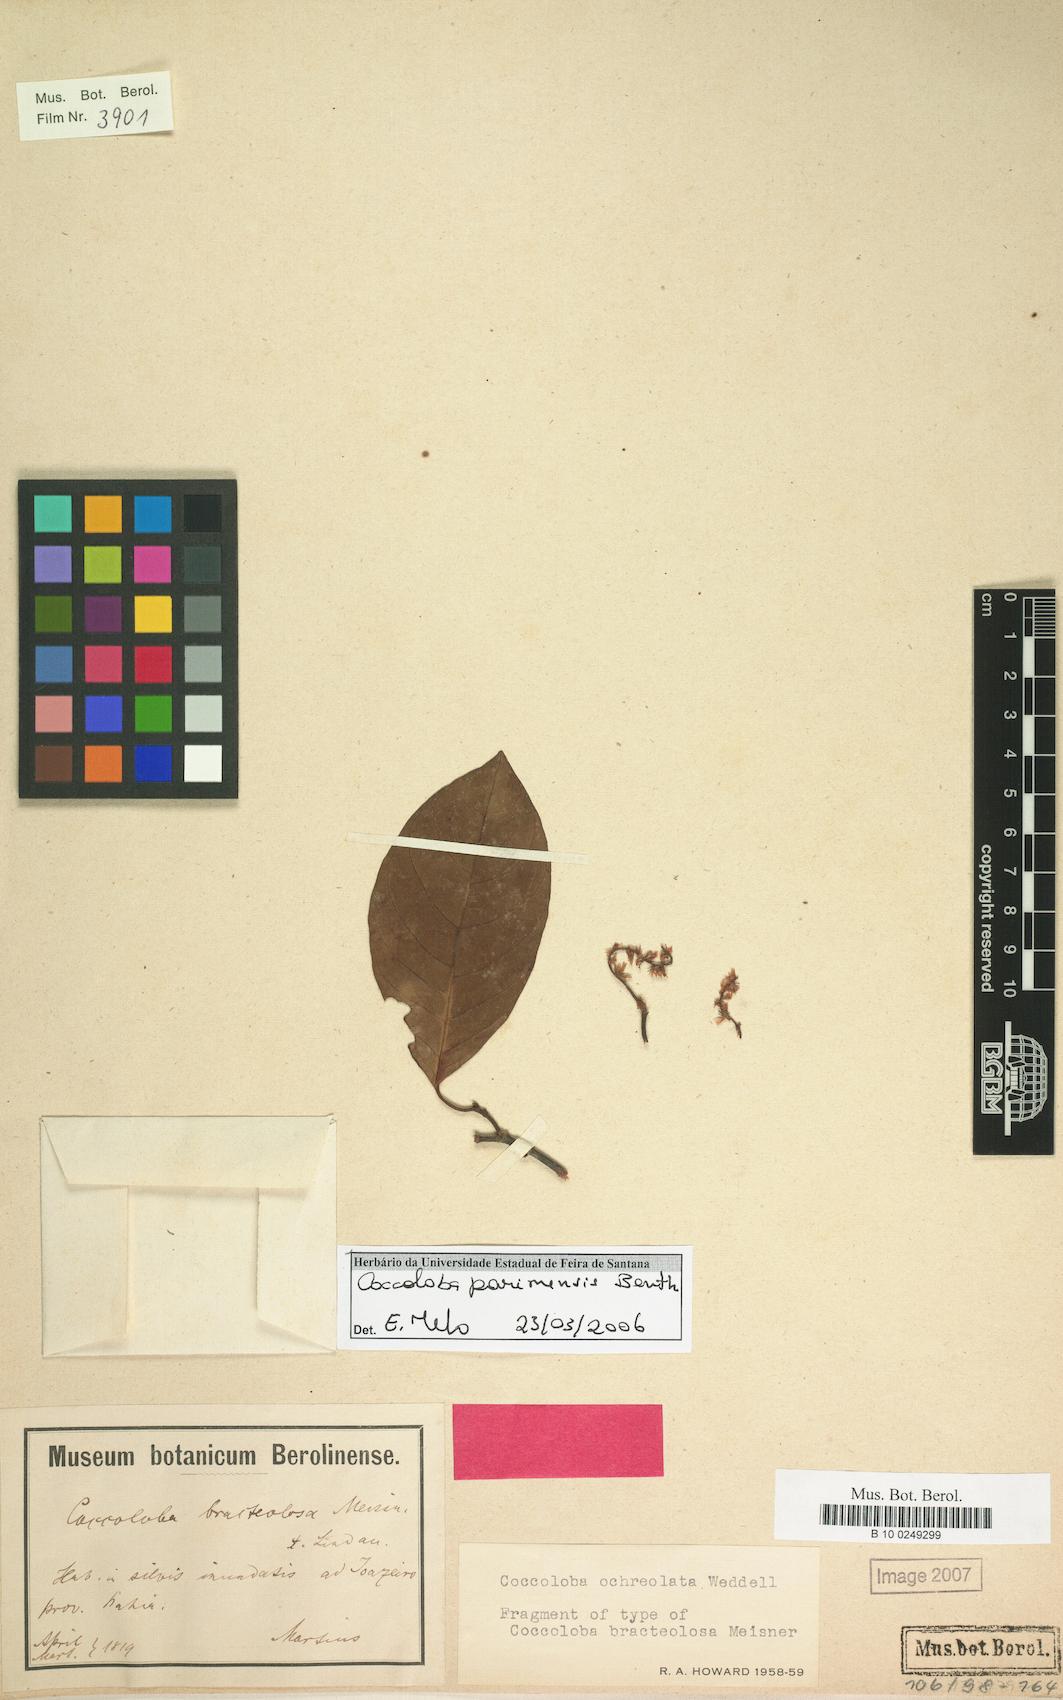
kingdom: Plantae
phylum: Tracheophyta
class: Magnoliopsida
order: Caryophyllales
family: Polygonaceae
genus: Coccoloba
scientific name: Coccoloba parimensis
